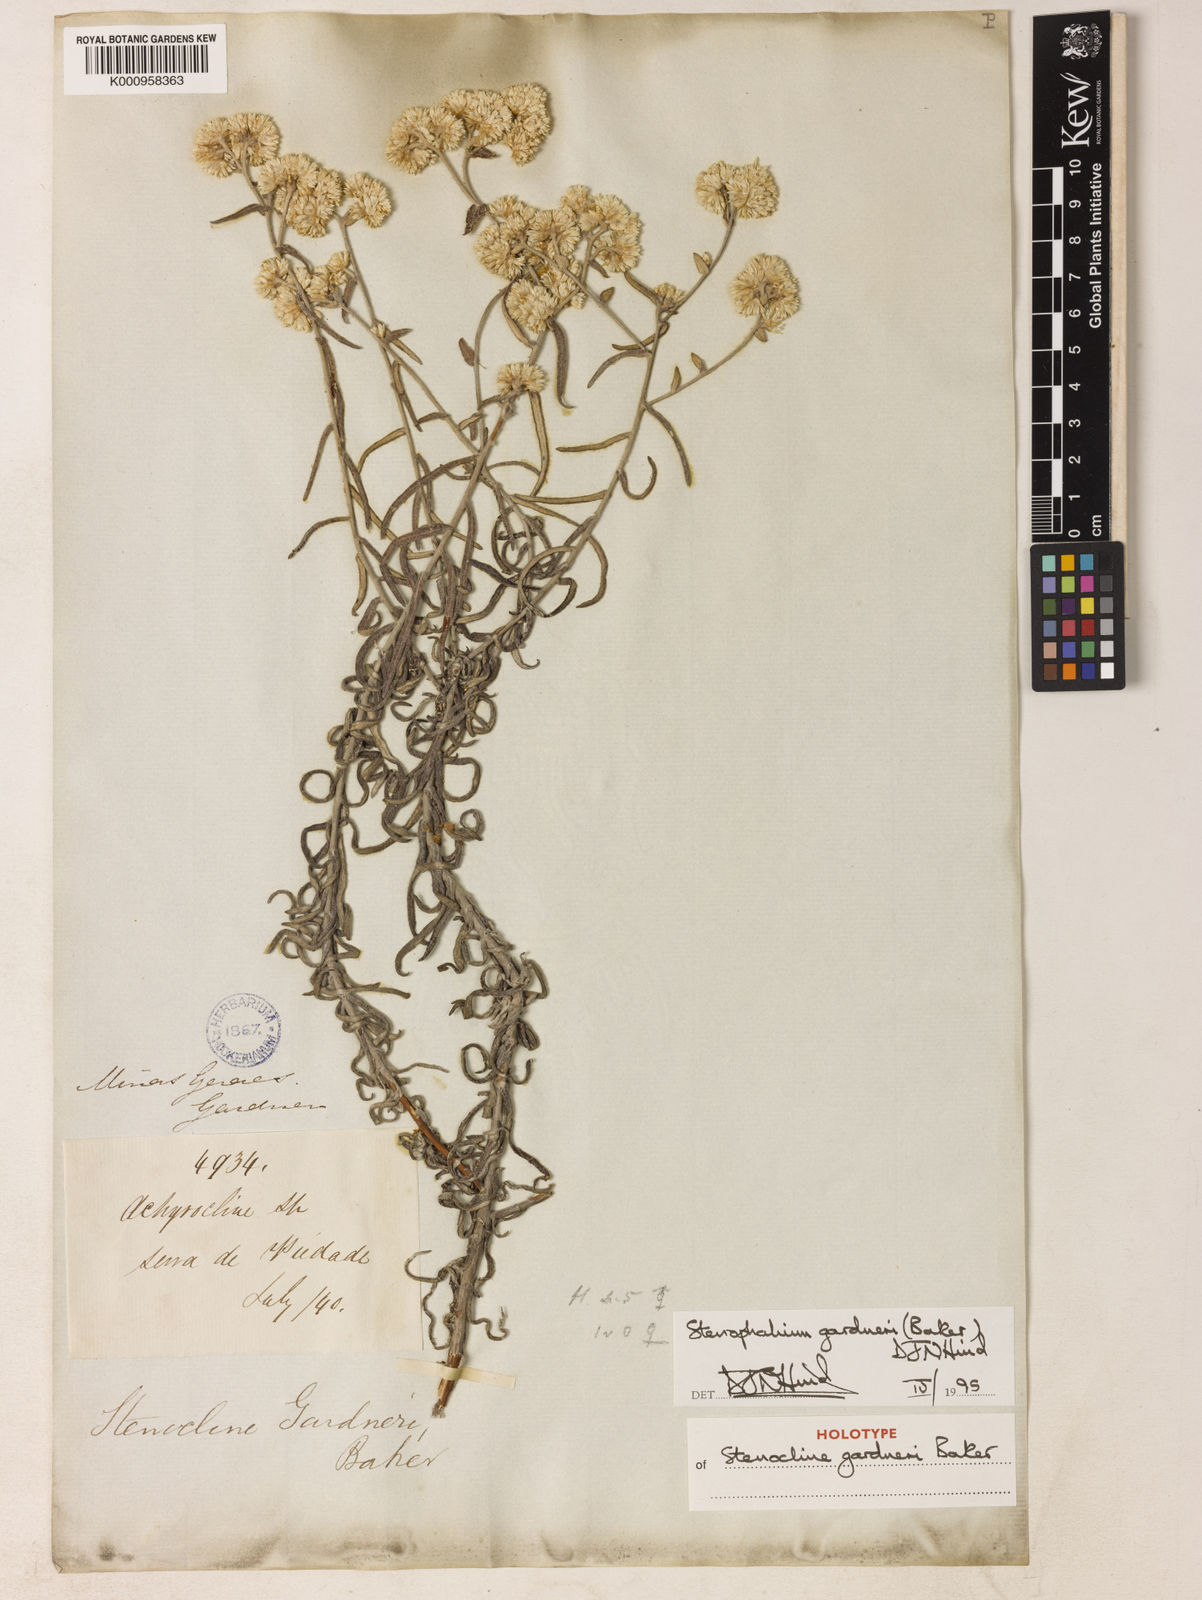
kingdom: Plantae
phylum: Tracheophyta
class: Magnoliopsida
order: Asterales
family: Asteraceae
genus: Achyrocline
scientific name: Achyrocline gardneri
